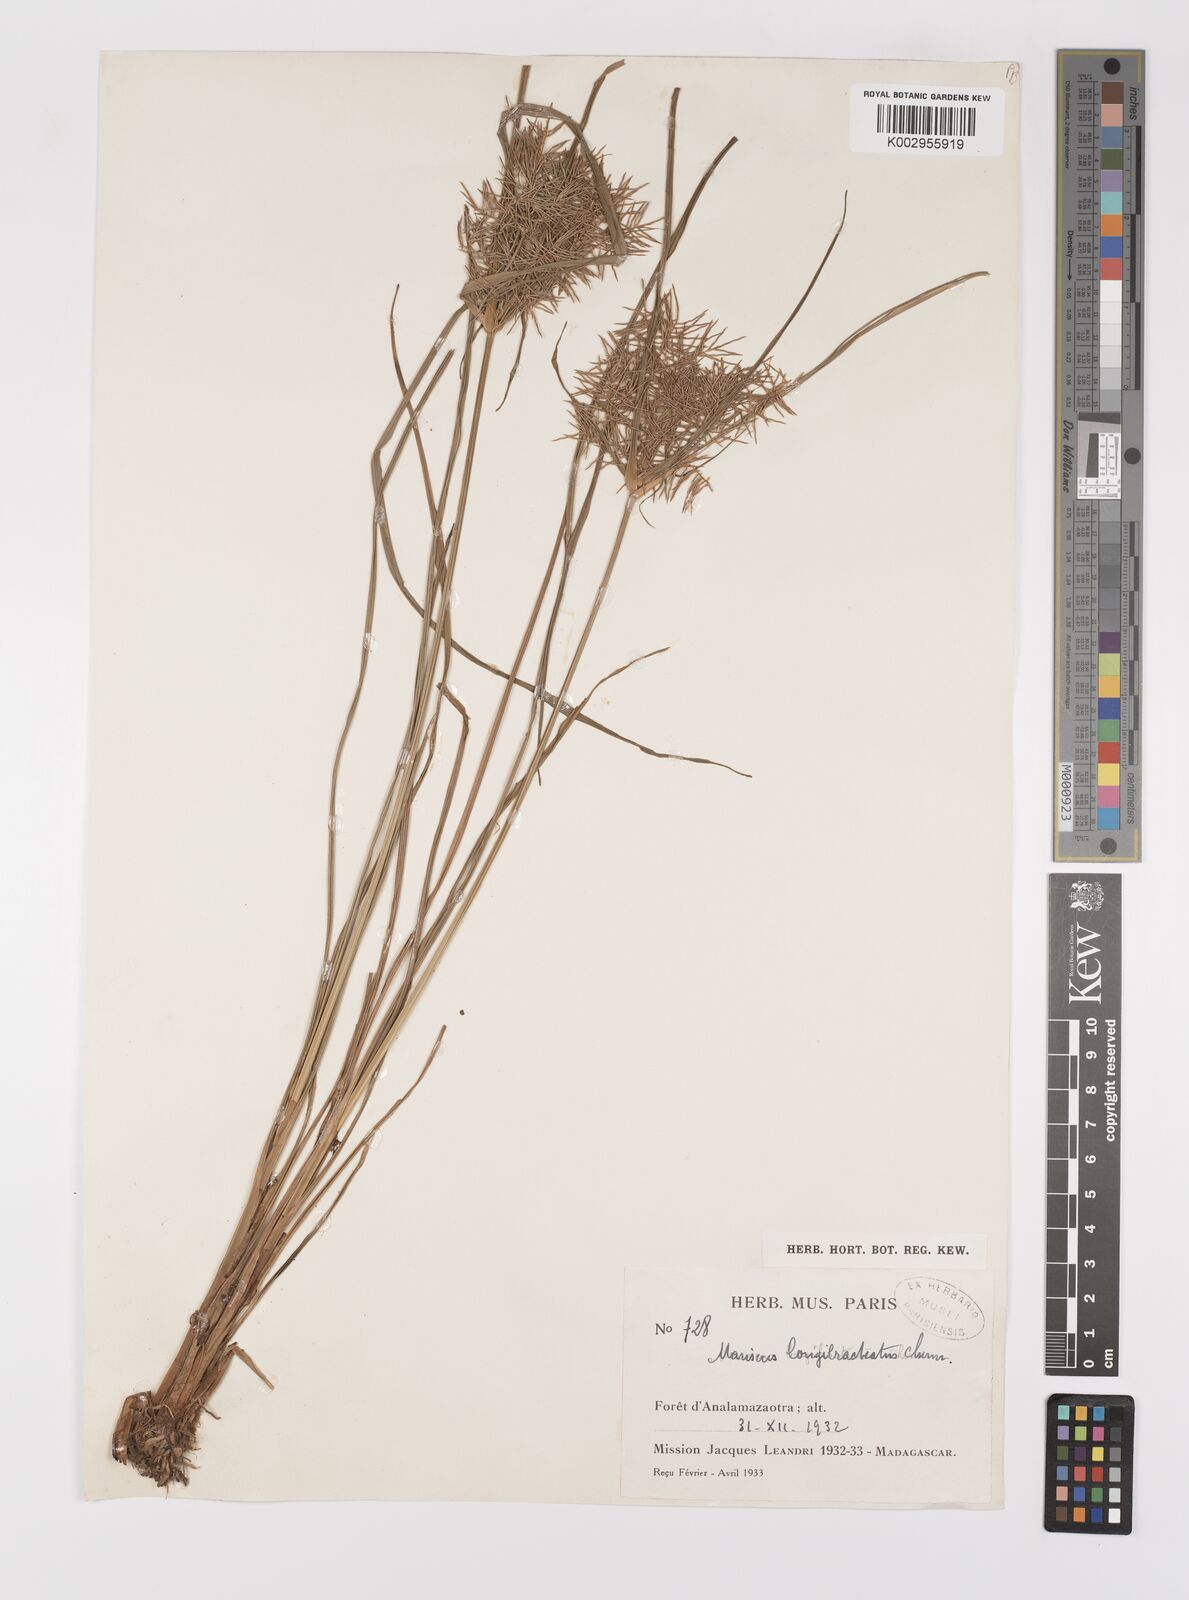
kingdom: Plantae
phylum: Tracheophyta
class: Liliopsida
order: Poales
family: Cyperaceae
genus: Cyperus
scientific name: Cyperus distans
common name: Slender cyperus
